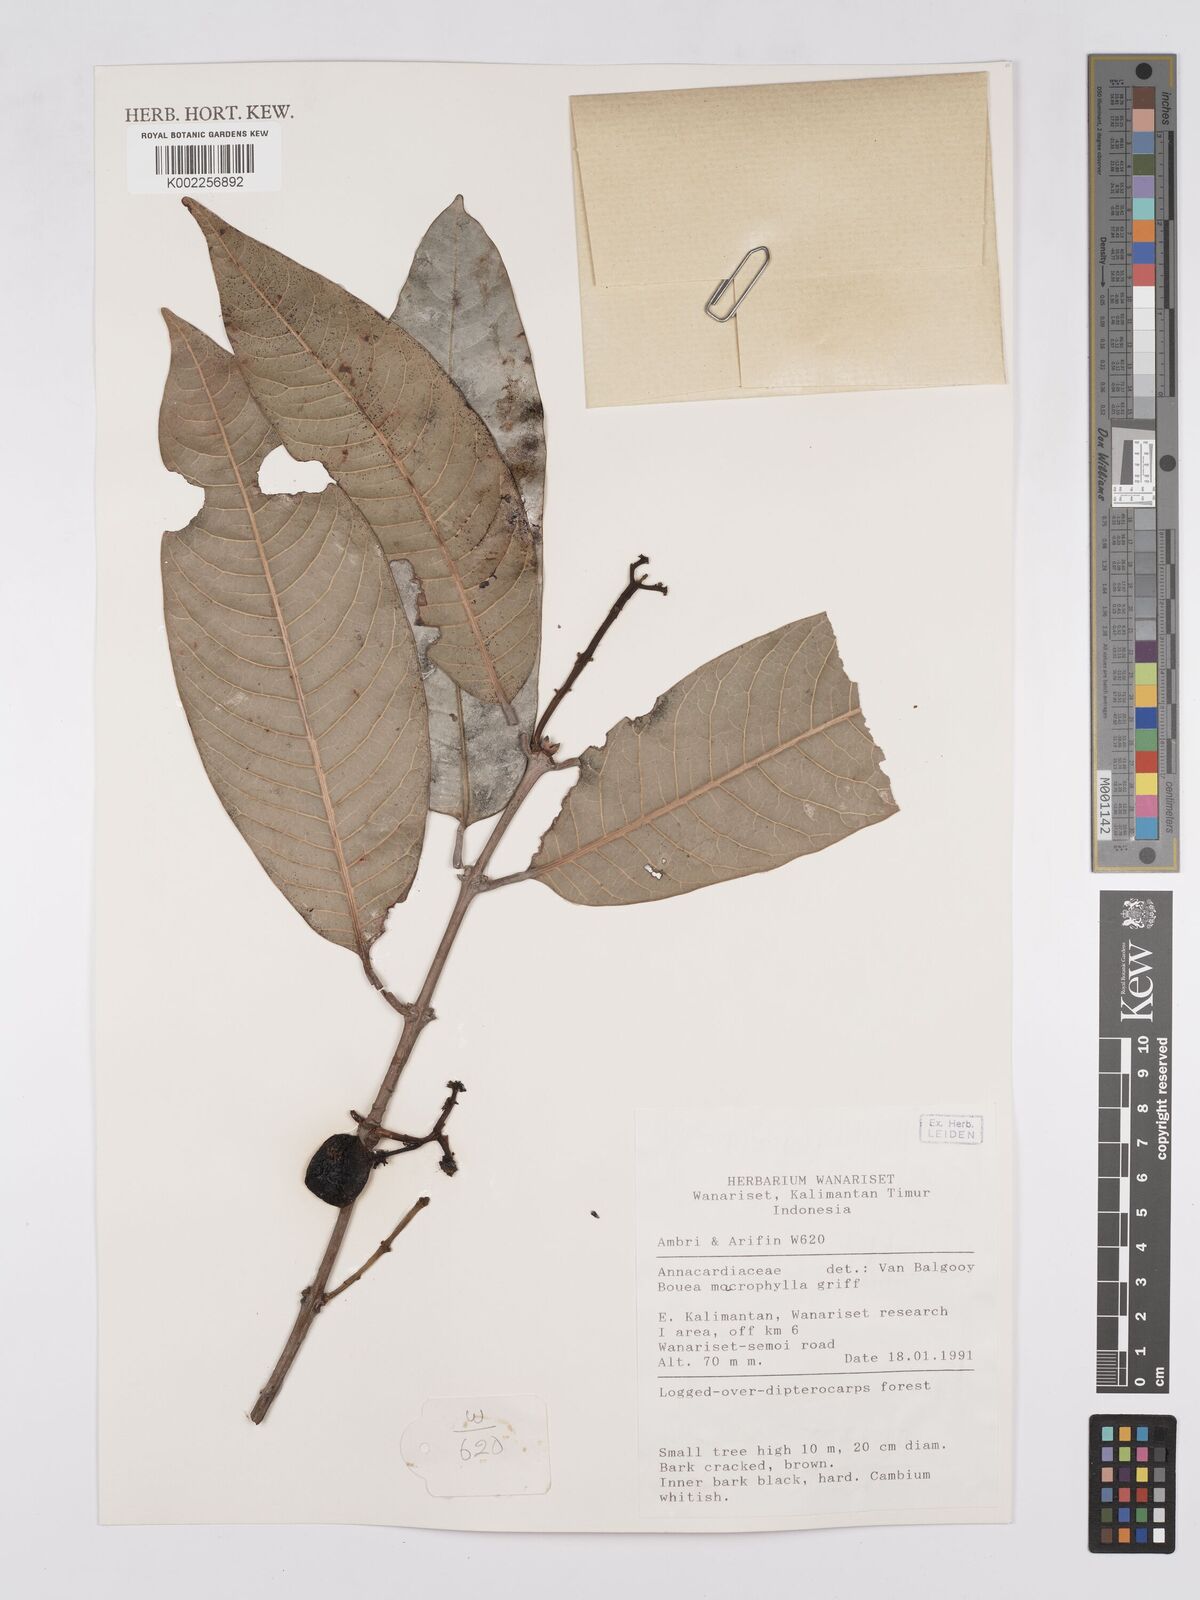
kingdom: Plantae
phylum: Tracheophyta
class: Magnoliopsida
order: Sapindales
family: Anacardiaceae
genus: Bouea
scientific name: Bouea macrophylla
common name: Gandaria
